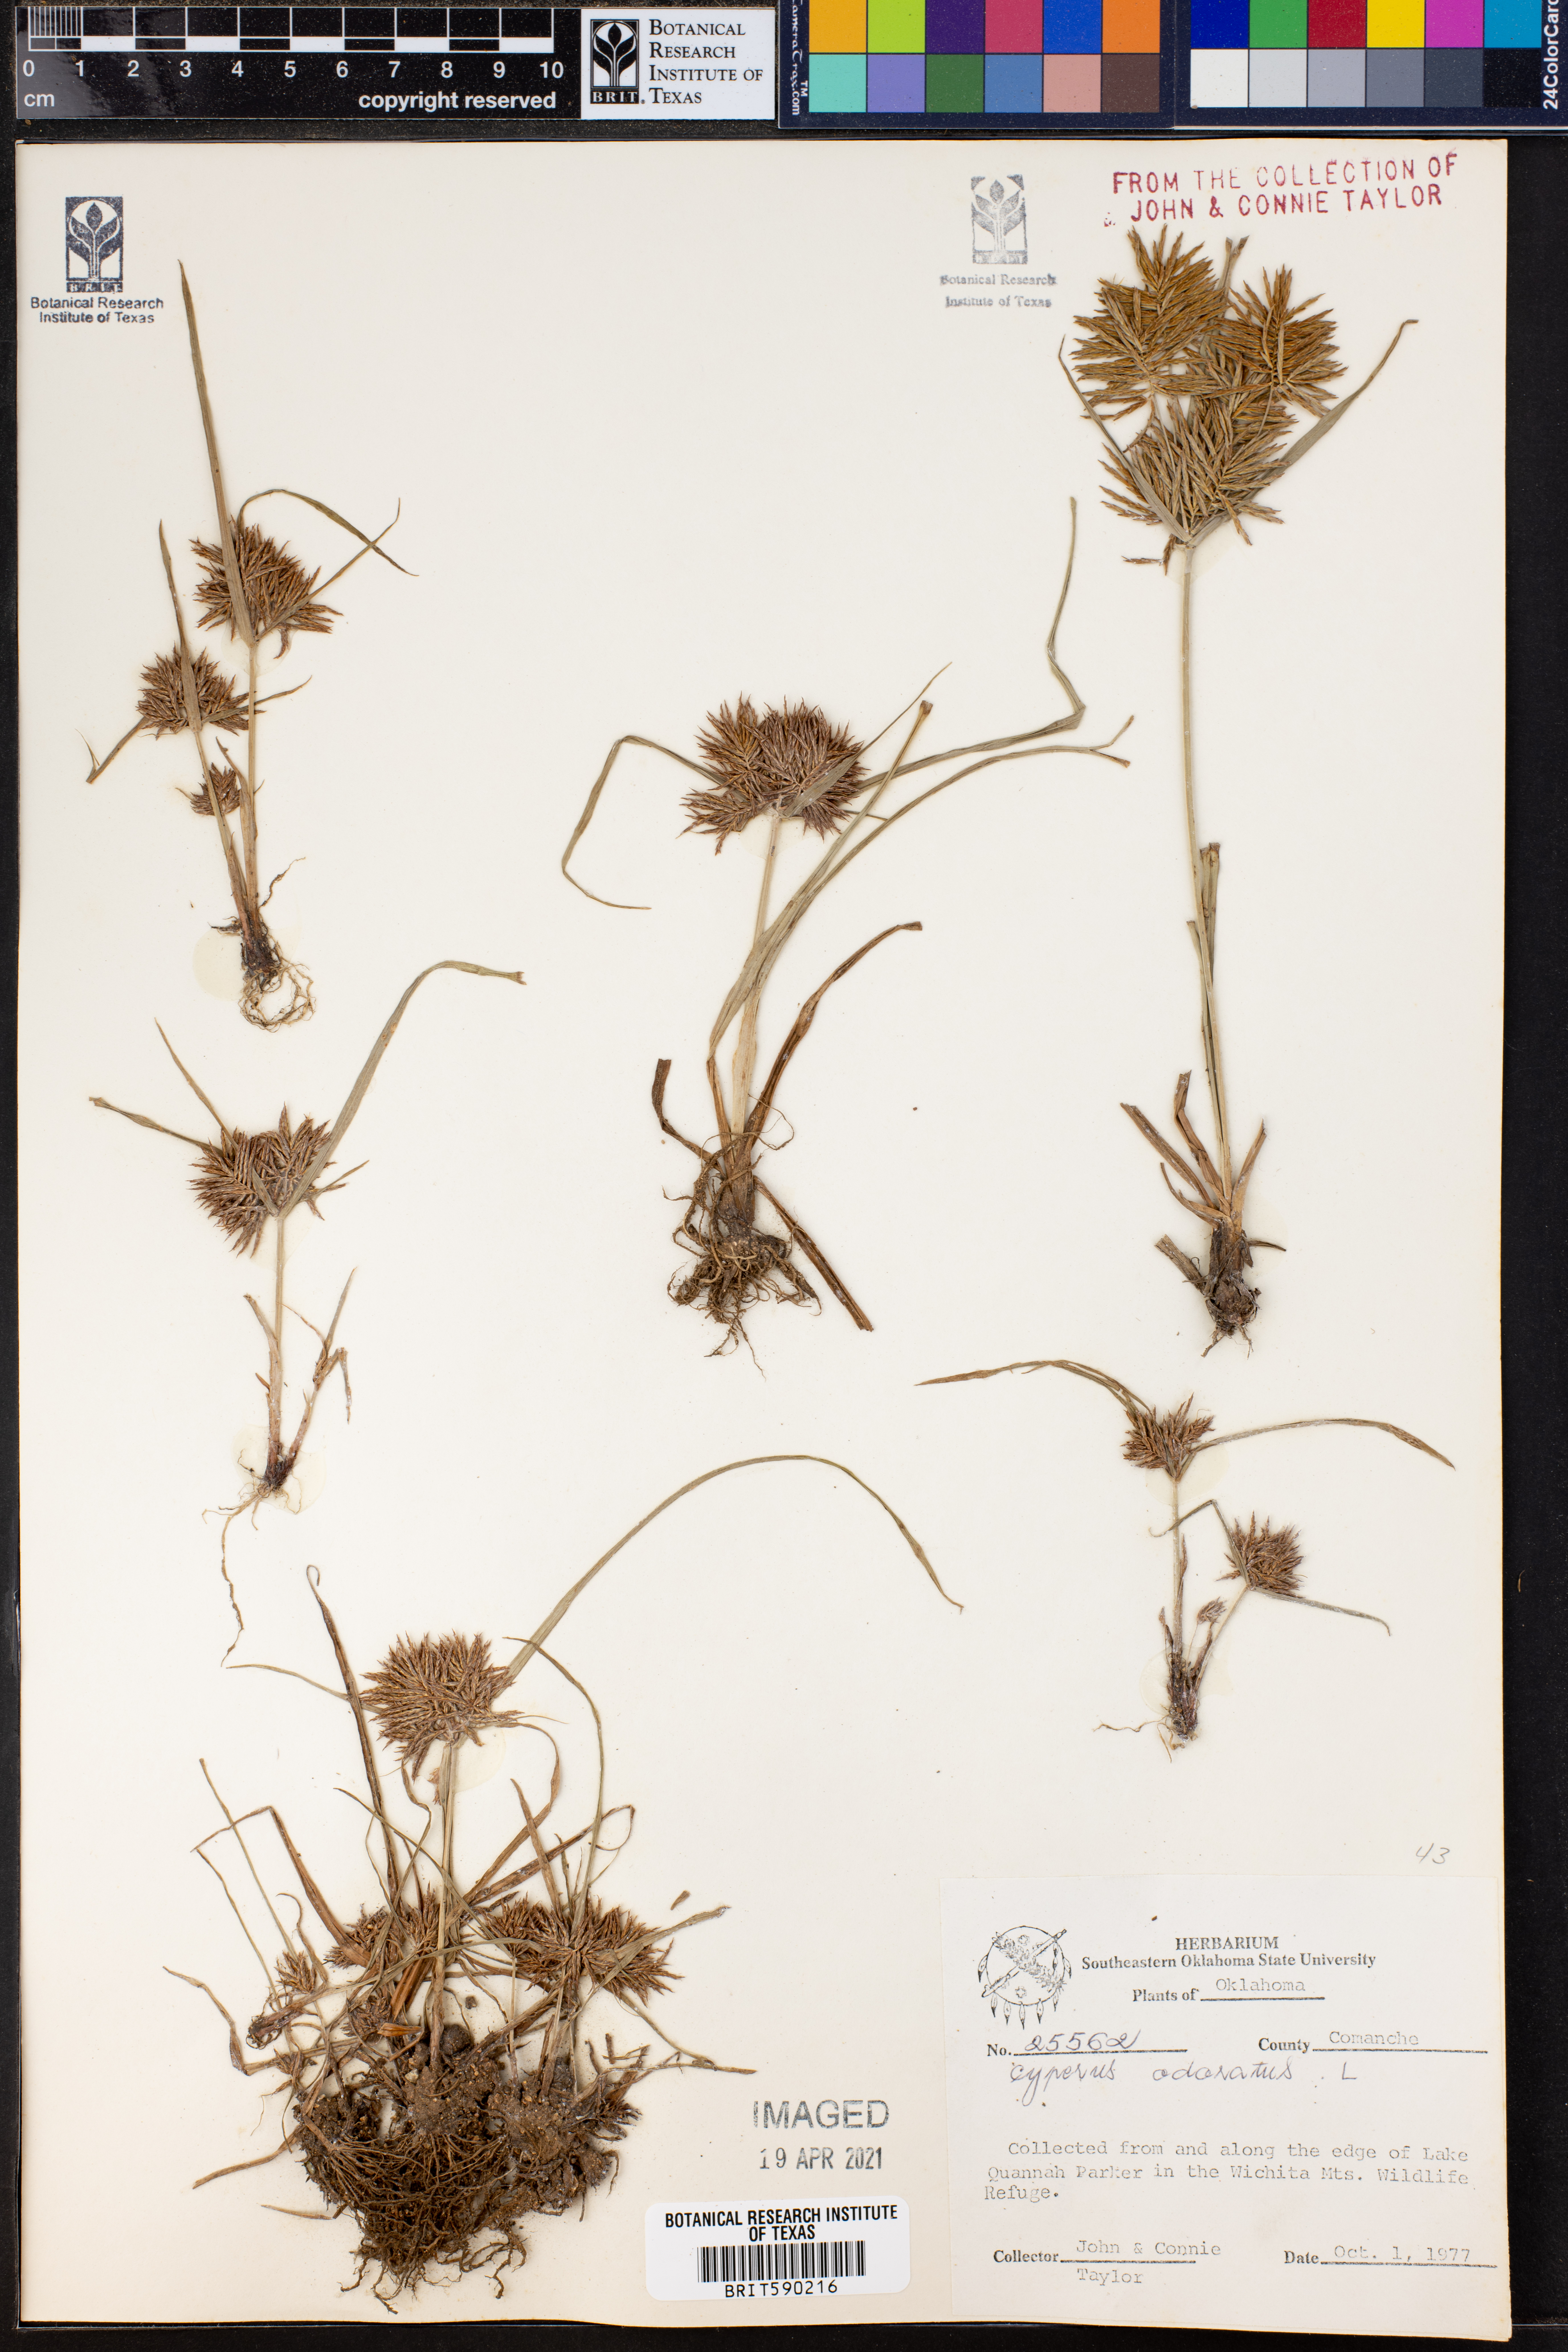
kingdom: Plantae
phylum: Tracheophyta
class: Liliopsida
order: Poales
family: Cyperaceae
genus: Cyperus
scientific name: Cyperus odoratus
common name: Fragrant flatsedge
